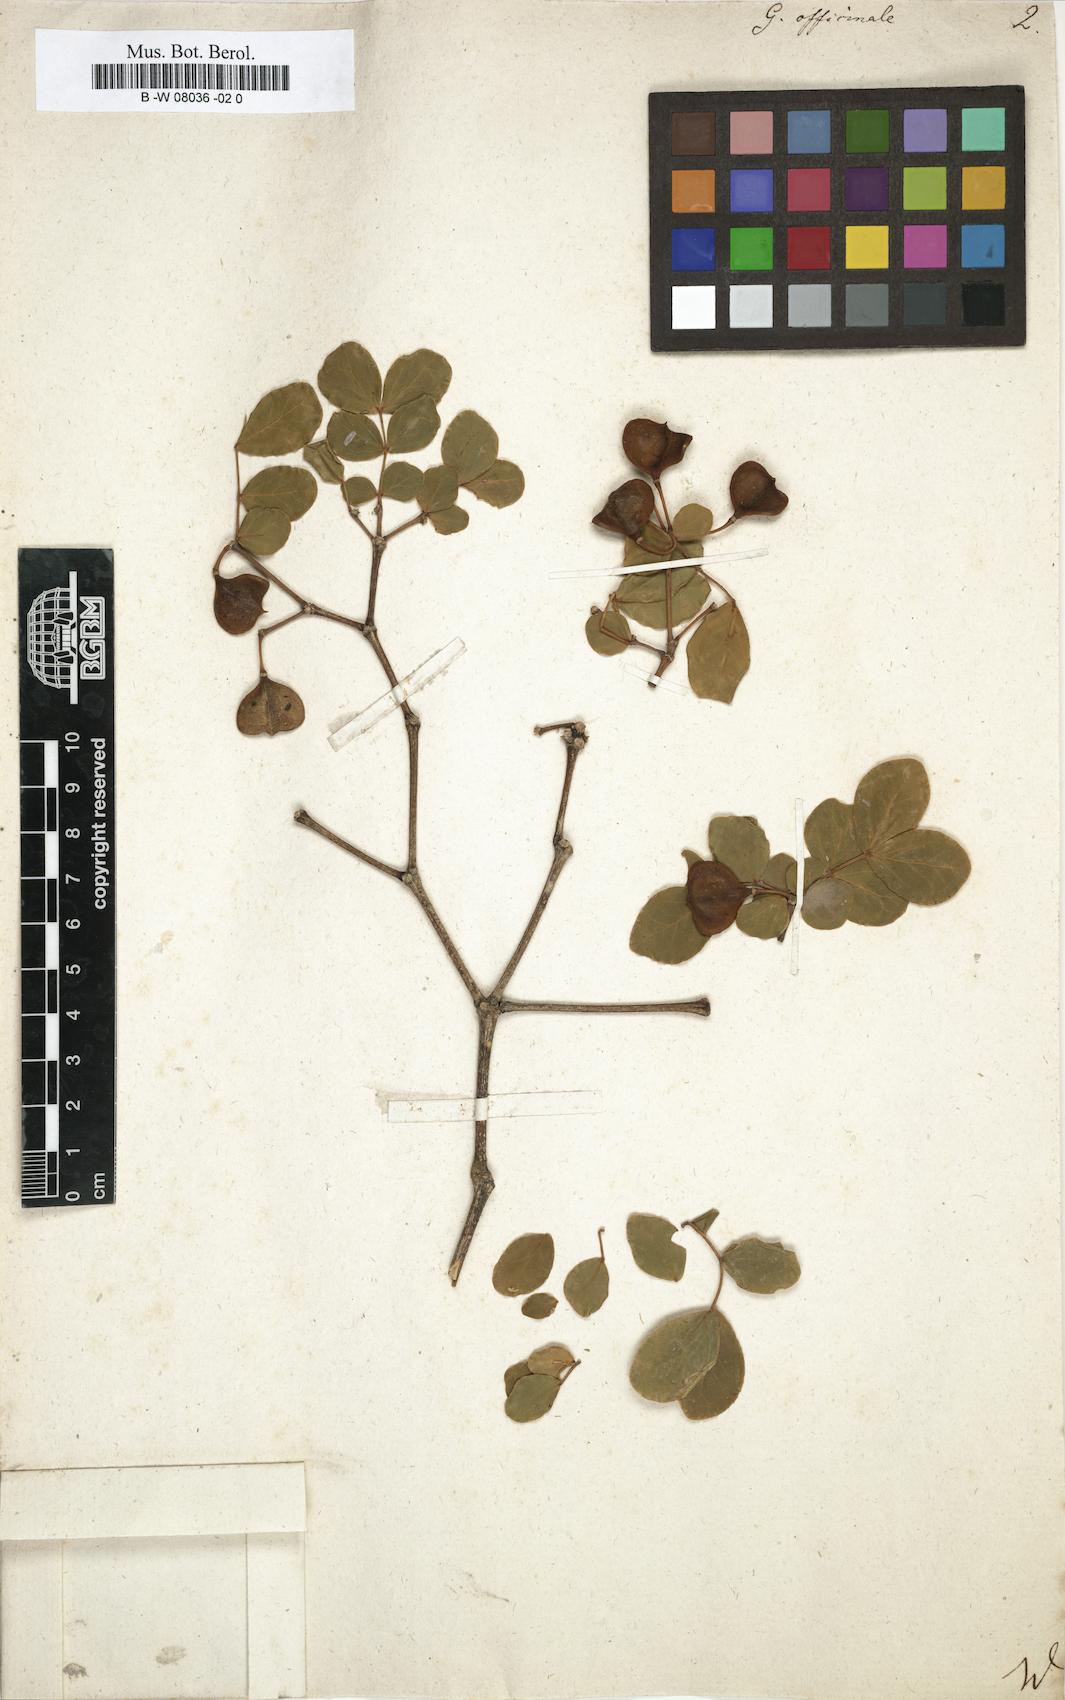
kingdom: Plantae
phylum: Tracheophyta
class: Magnoliopsida
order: Zygophyllales
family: Zygophyllaceae
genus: Guaiacum
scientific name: Guaiacum officinale
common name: Lignum vitae
